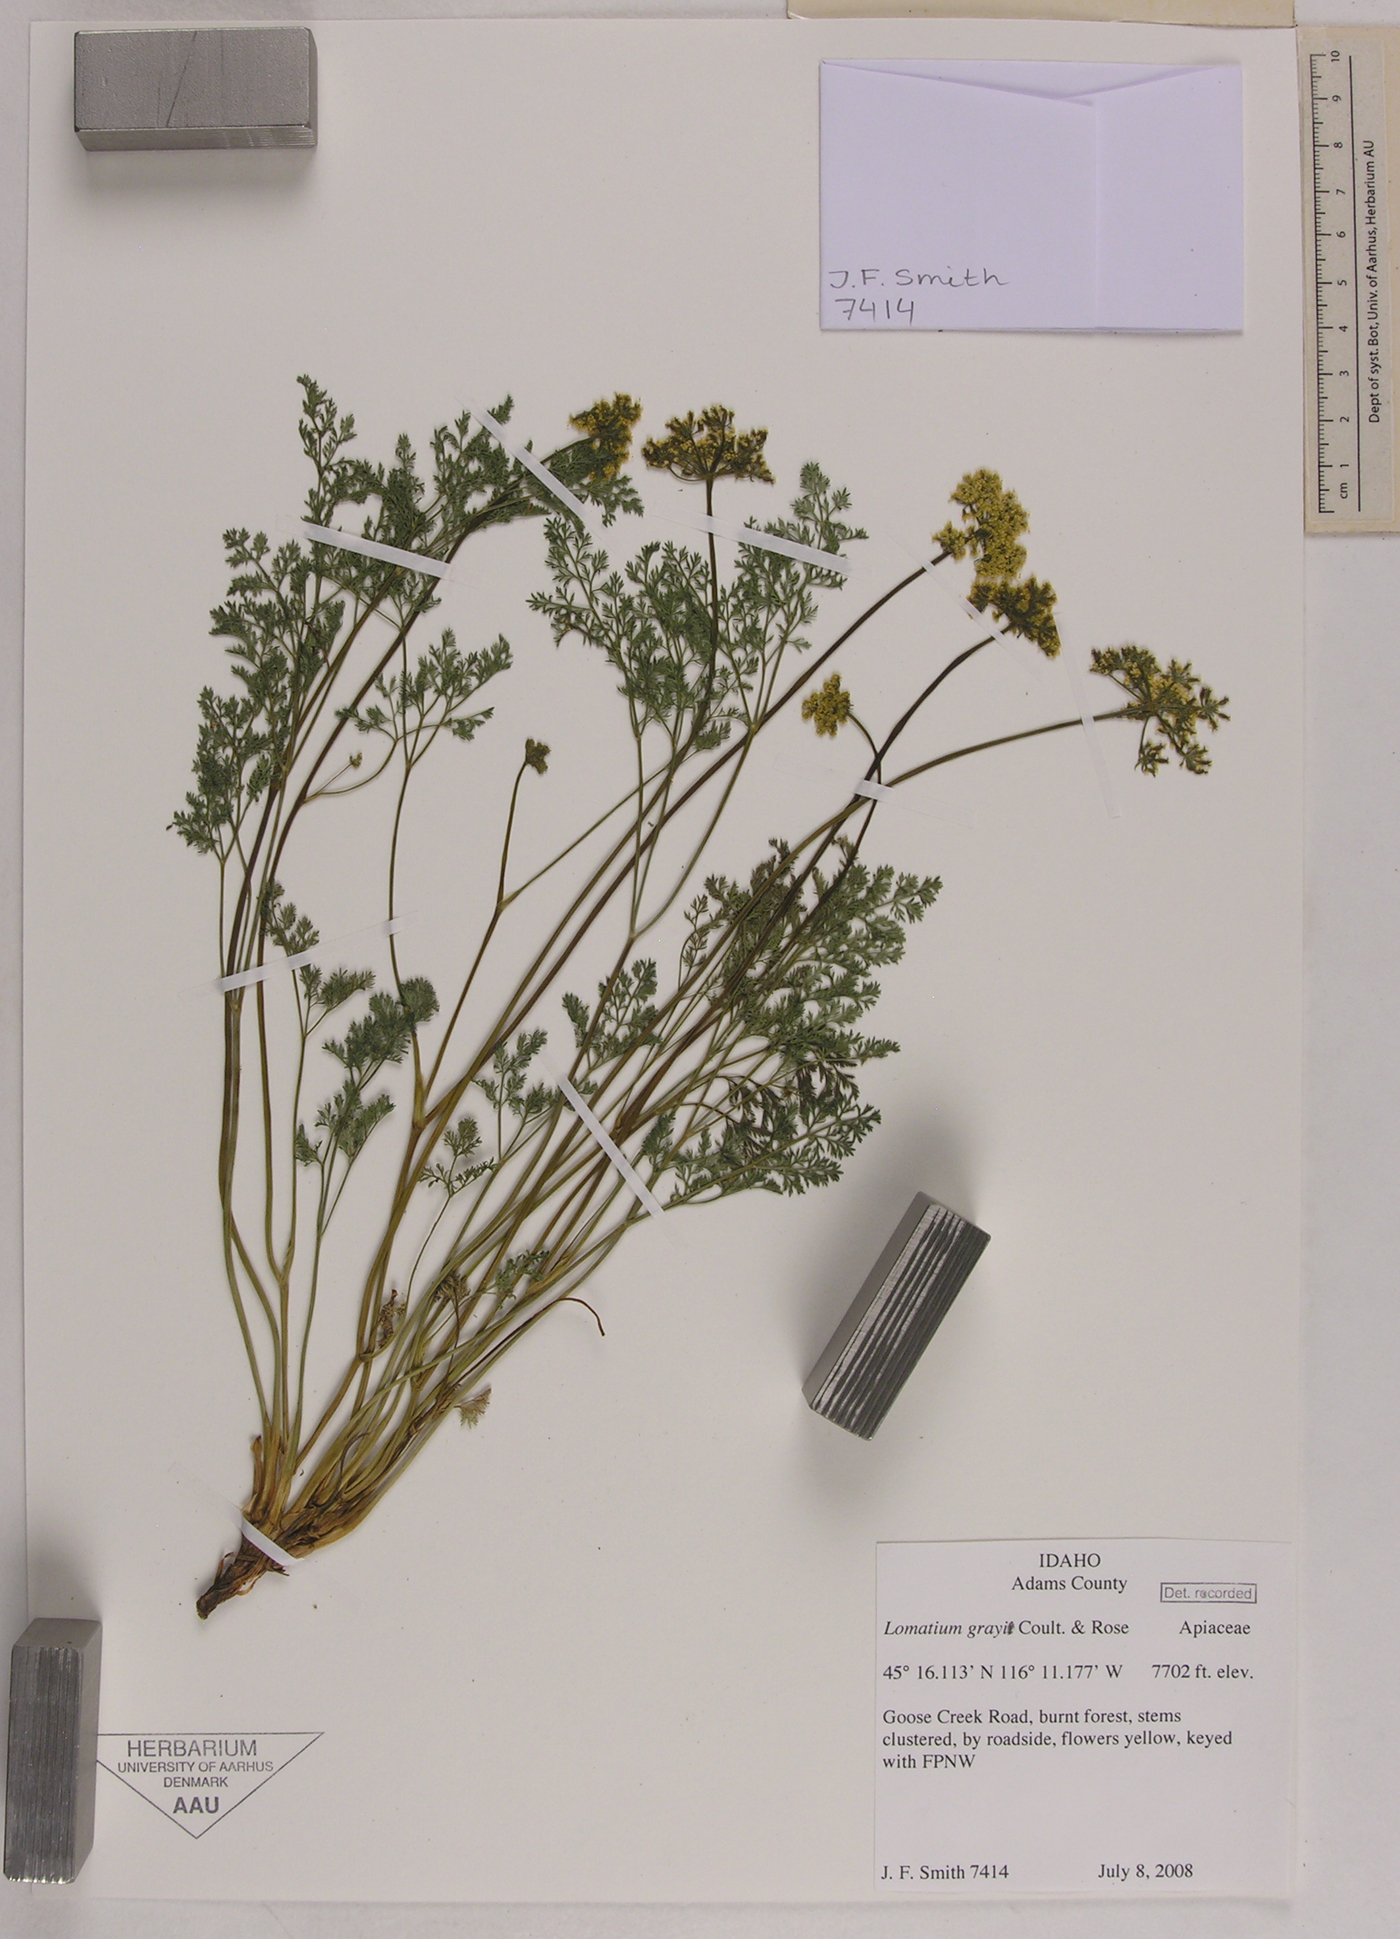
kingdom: Plantae
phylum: Tracheophyta
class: Magnoliopsida
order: Apiales
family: Apiaceae
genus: Lomatium
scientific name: Lomatium grayi
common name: Milfoil lomatium
